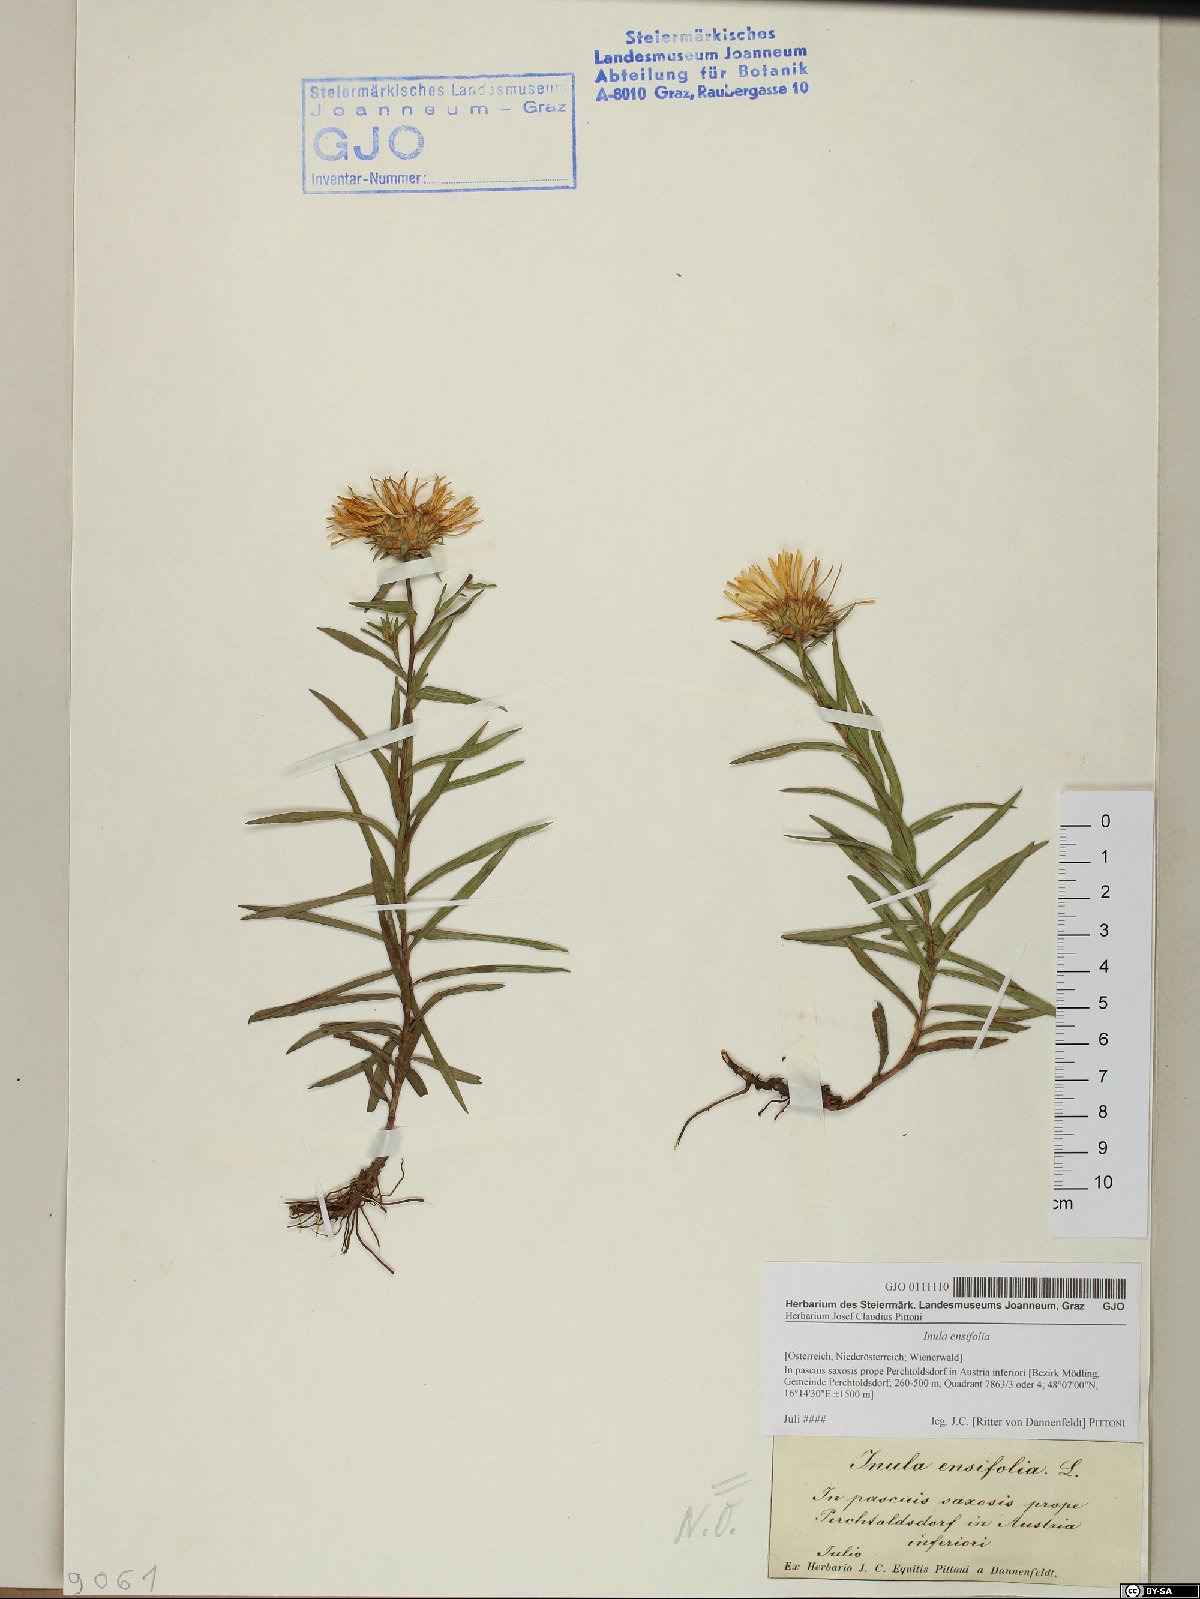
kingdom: Plantae
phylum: Tracheophyta
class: Magnoliopsida
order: Asterales
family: Asteraceae
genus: Pentanema
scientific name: Pentanema ensifolium
